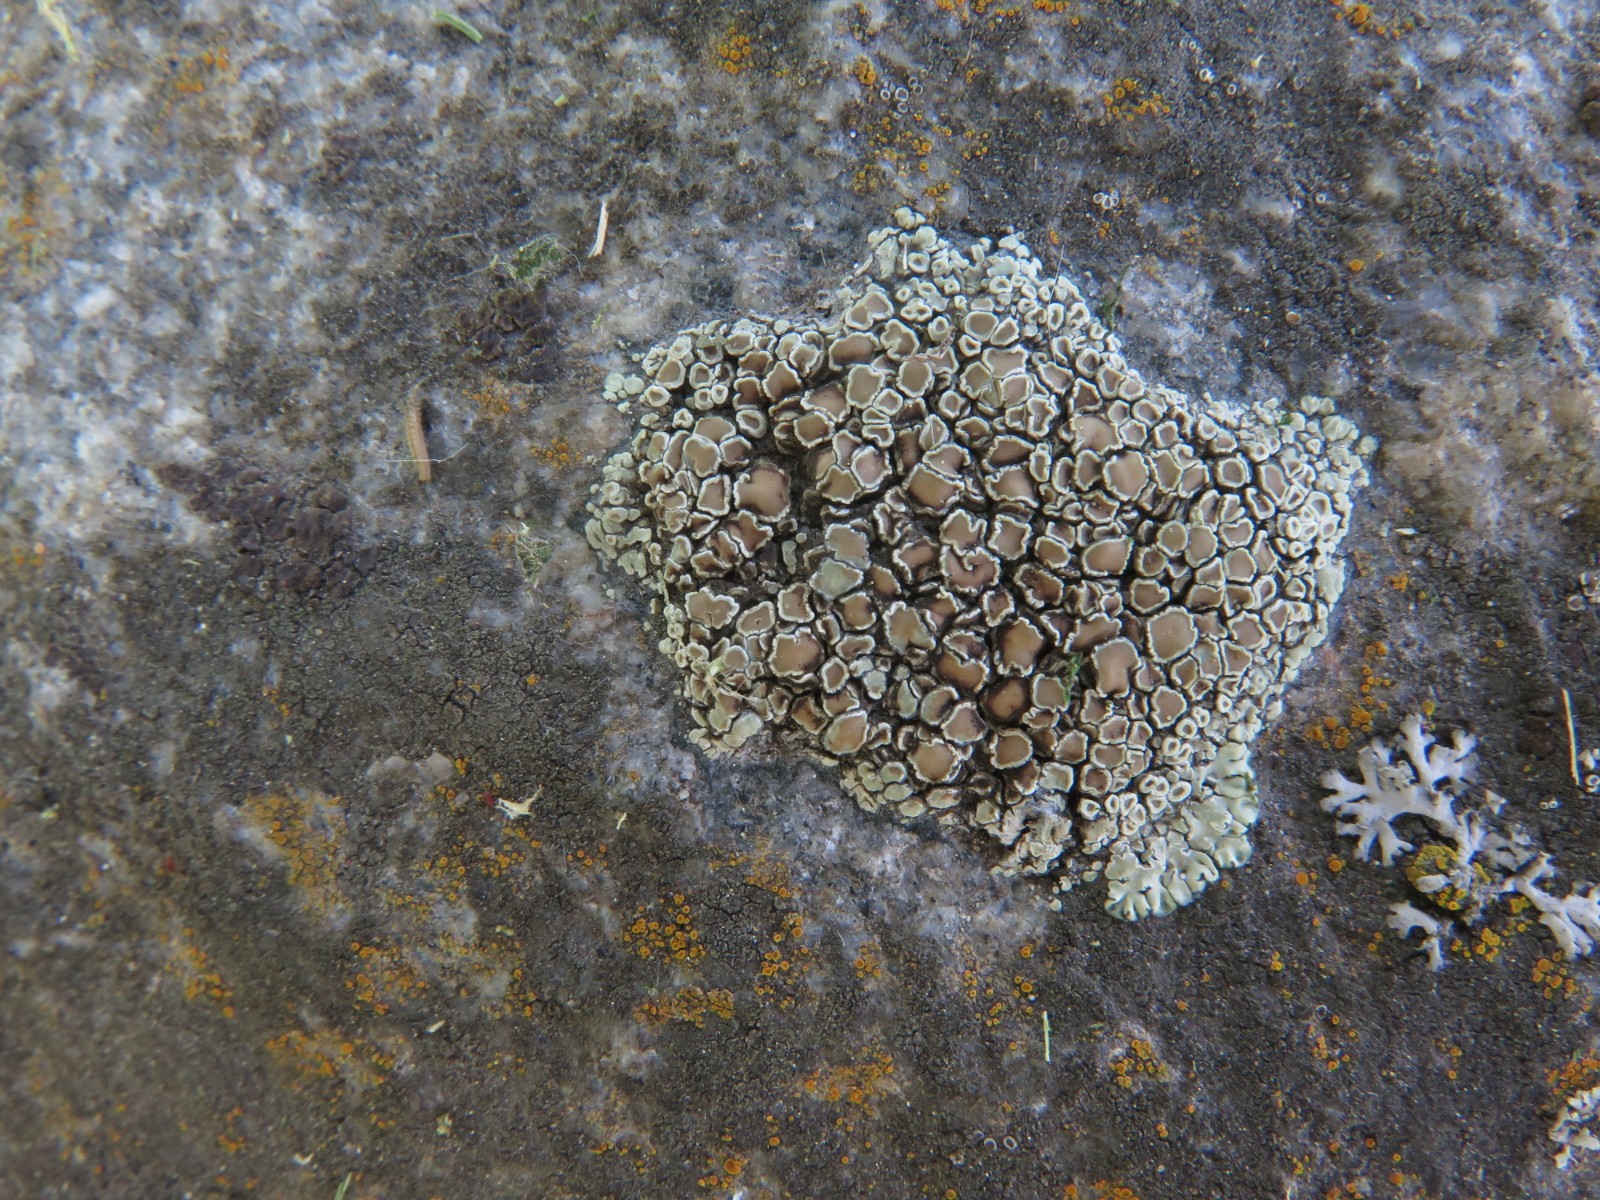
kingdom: Fungi
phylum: Ascomycota
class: Lecanoromycetes
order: Lecanorales
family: Lecanoraceae
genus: Protoparmeliopsis
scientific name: Protoparmeliopsis muralis
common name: randfliget kantskivelav
